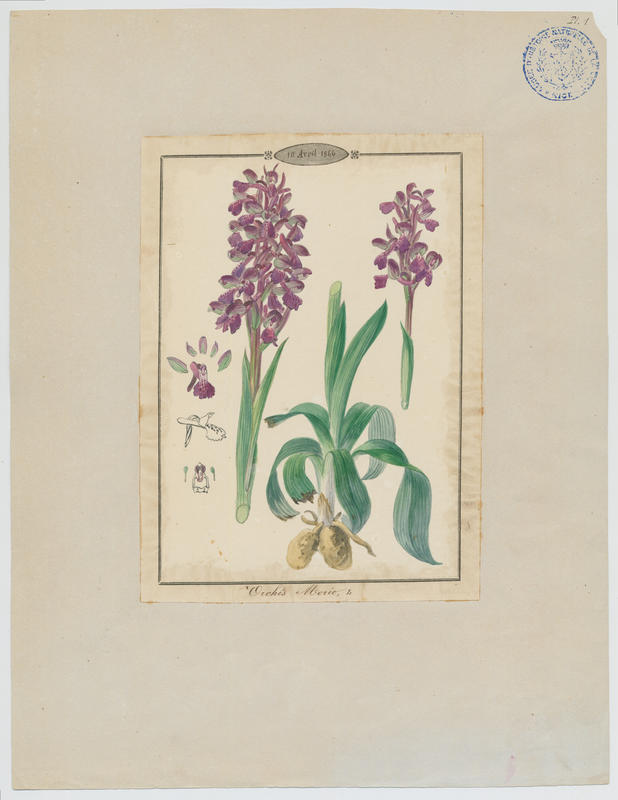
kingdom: Plantae
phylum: Tracheophyta
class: Liliopsida
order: Asparagales
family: Orchidaceae
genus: Anacamptis
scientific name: Anacamptis morio
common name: Green-winged orchid
